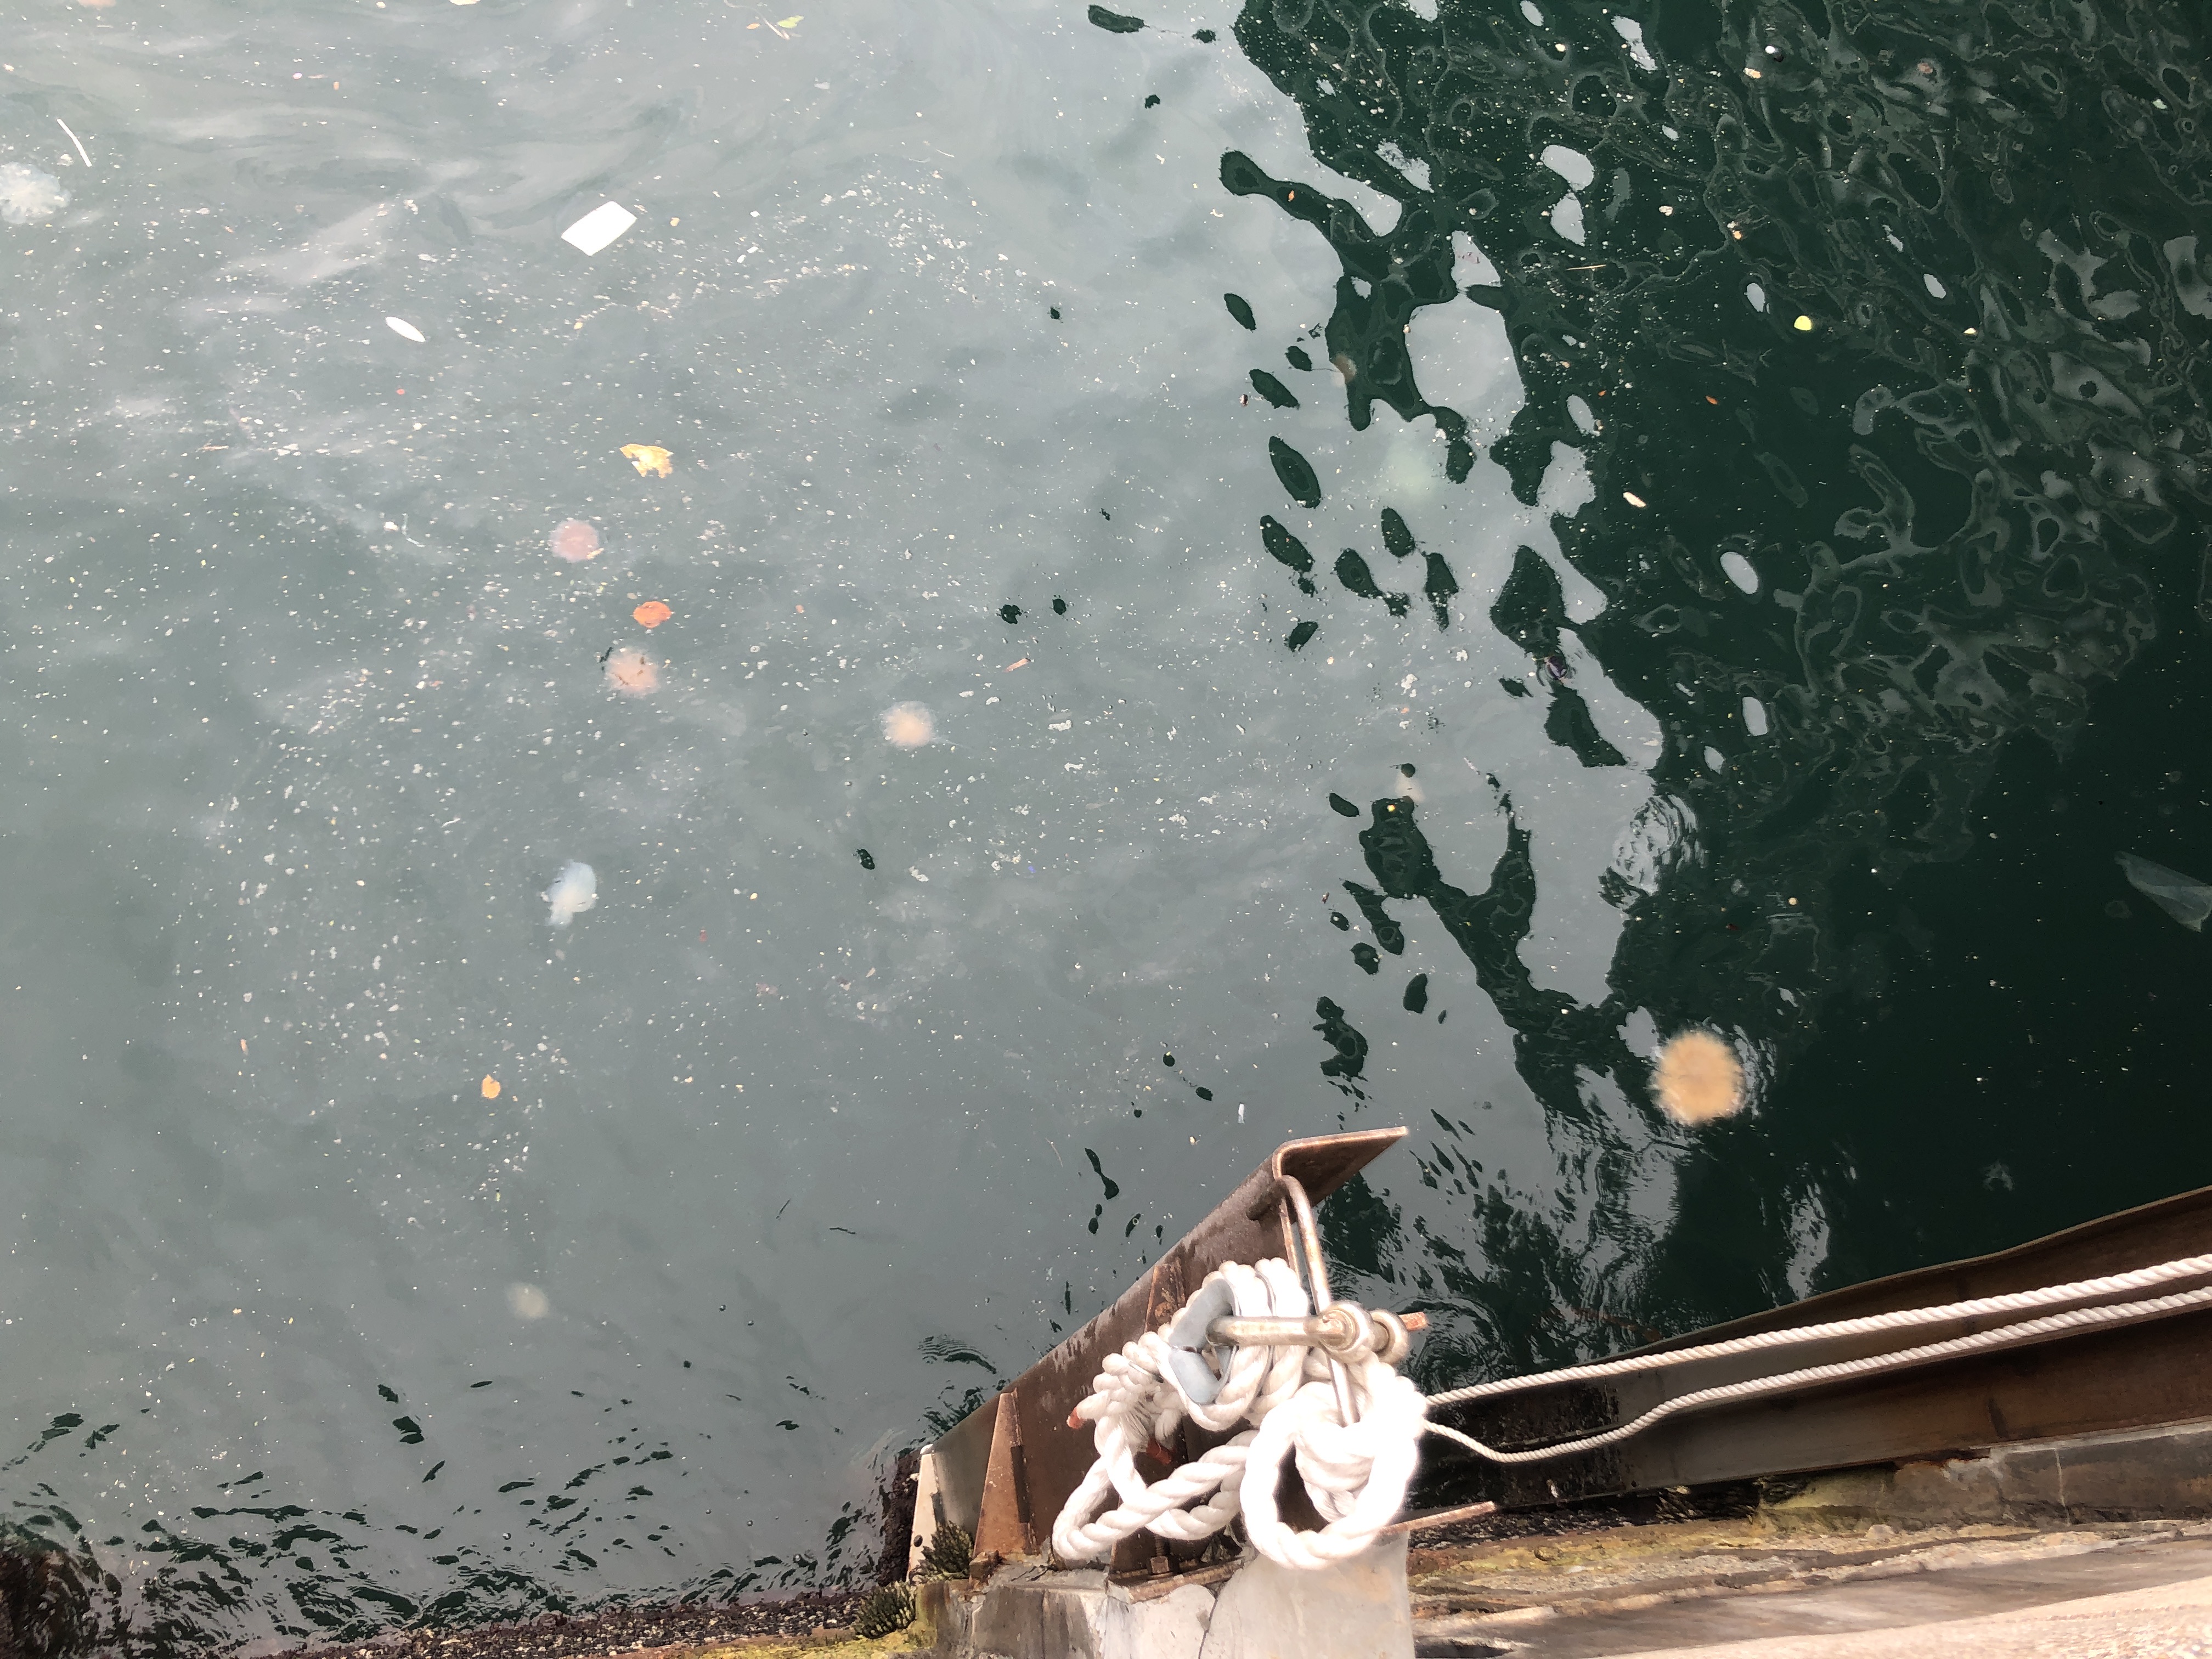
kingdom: Animalia
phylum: Cnidaria
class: Scyphozoa
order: Semaeostomeae
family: Cyaneidae
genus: Cyanea
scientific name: Cyanea nozakii
